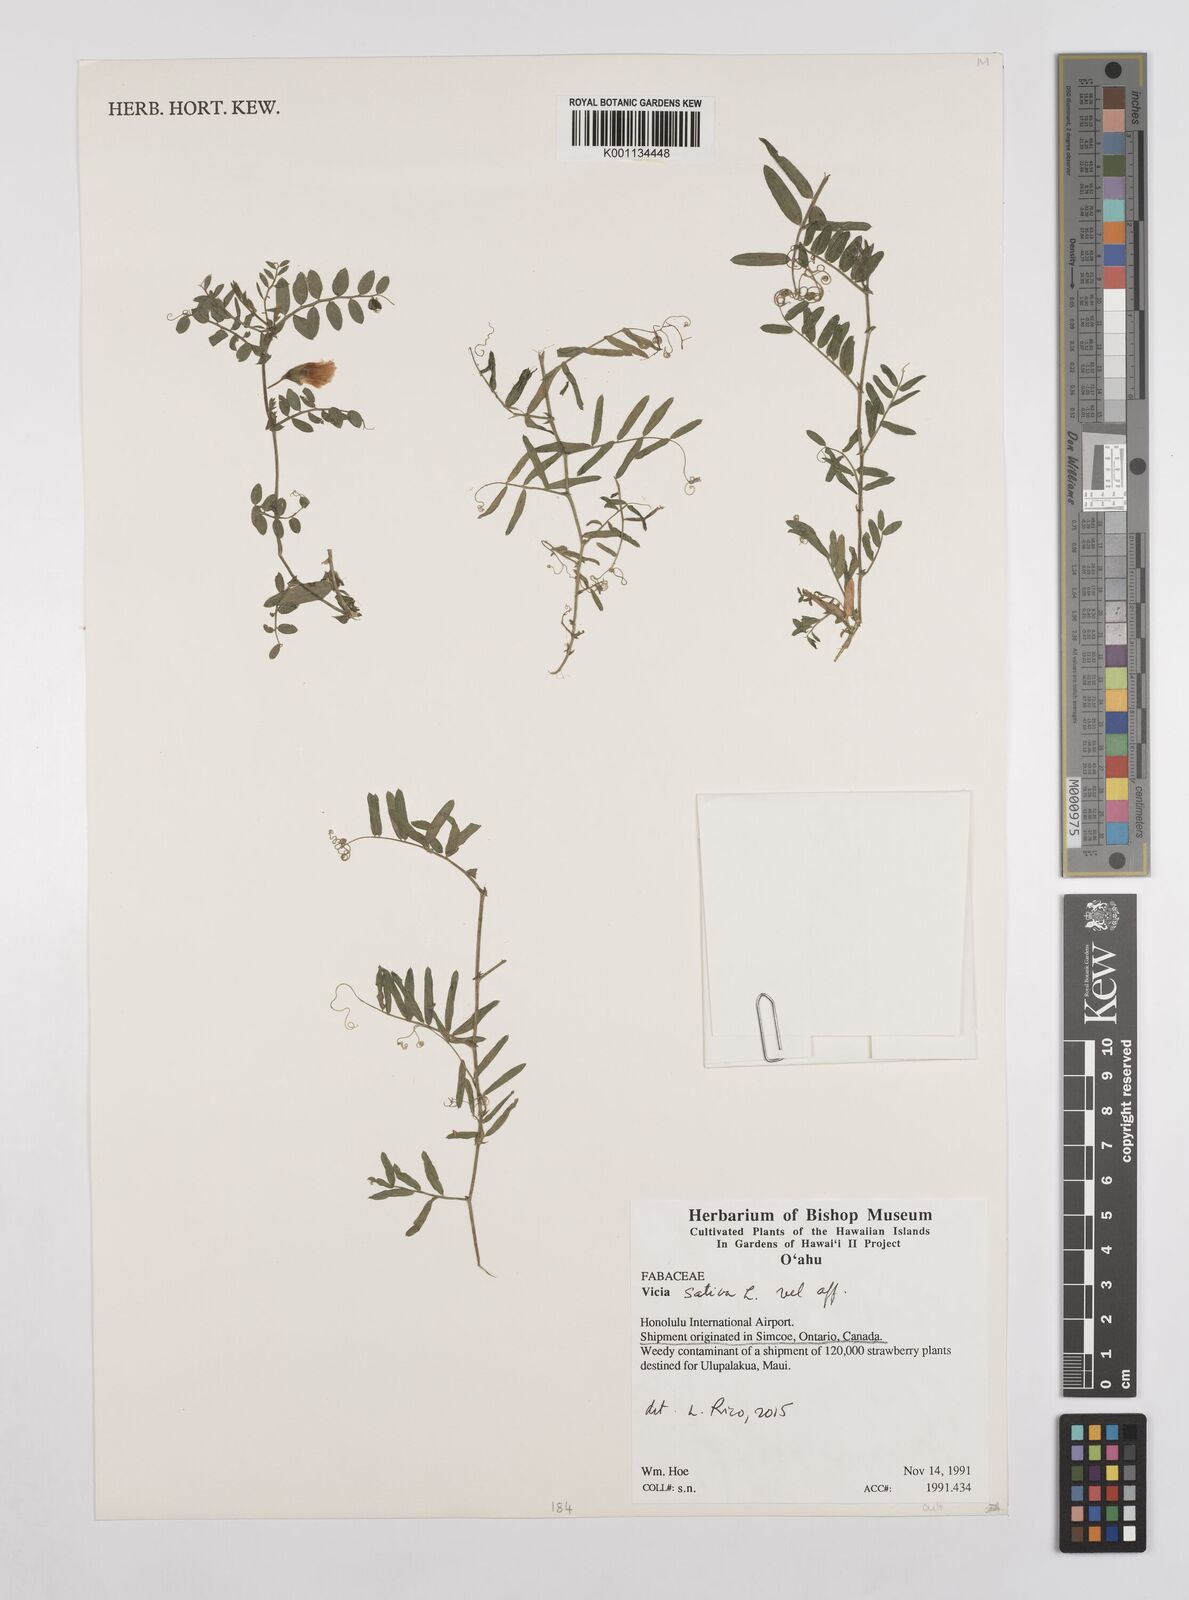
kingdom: Plantae
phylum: Tracheophyta
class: Magnoliopsida
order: Fabales
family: Fabaceae
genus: Vicia
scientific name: Vicia sativa
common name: Garden vetch
